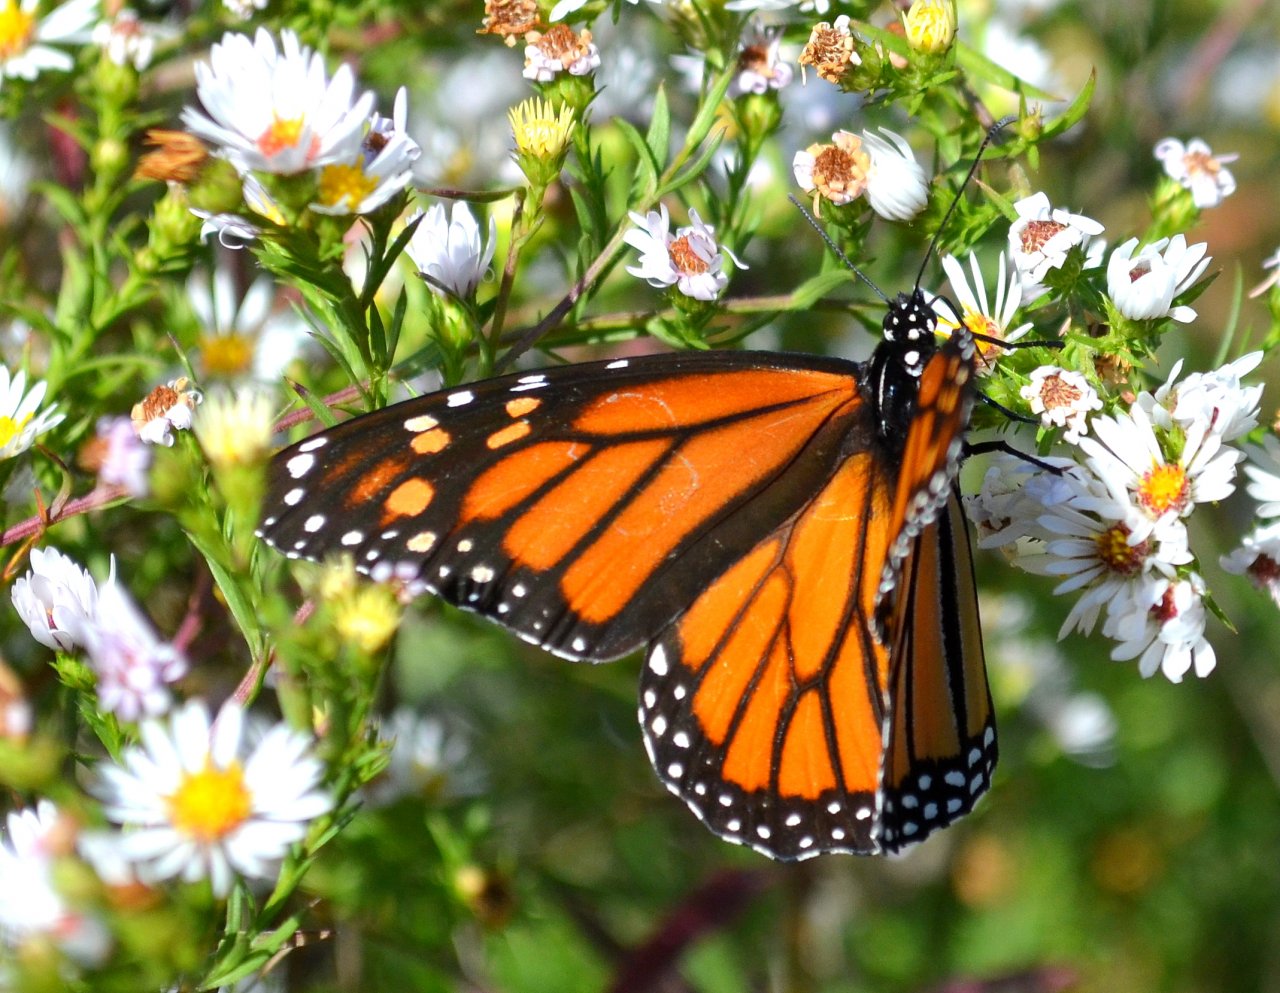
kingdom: Animalia
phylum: Arthropoda
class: Insecta
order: Lepidoptera
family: Nymphalidae
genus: Danaus
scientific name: Danaus plexippus
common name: Monarch
